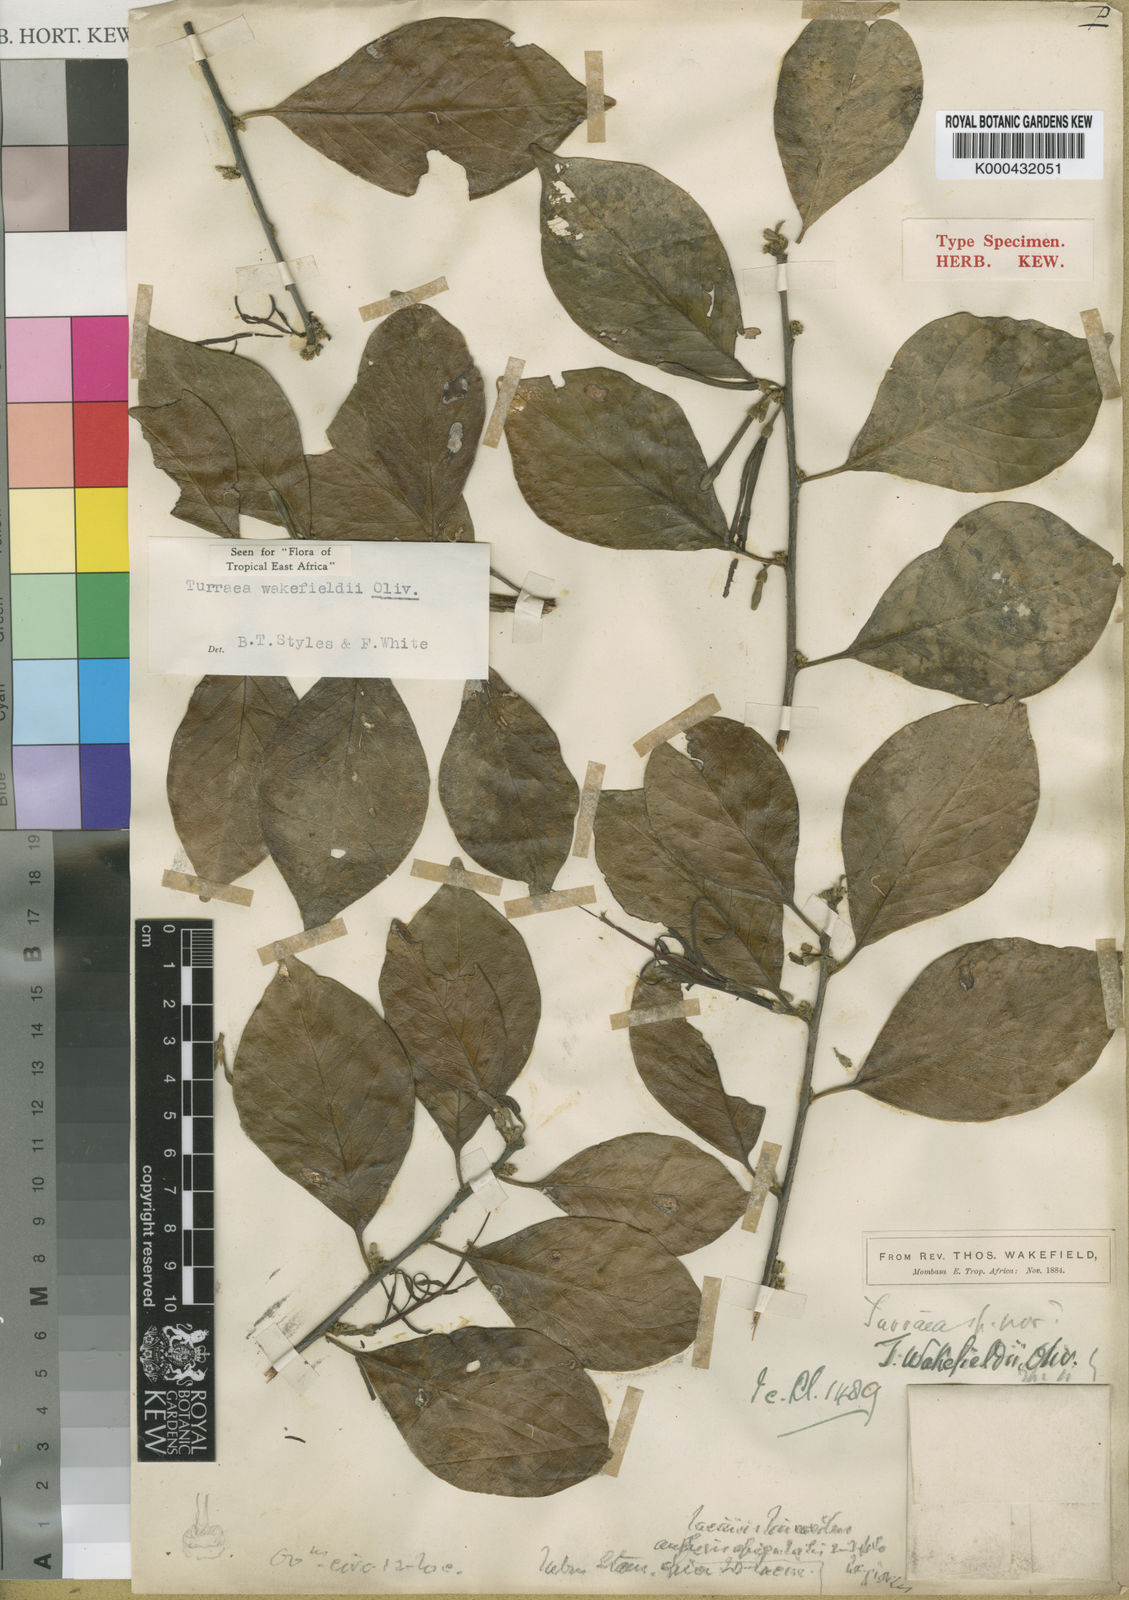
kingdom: Plantae
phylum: Tracheophyta
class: Magnoliopsida
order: Sapindales
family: Meliaceae
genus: Turraea
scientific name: Turraea wakefieldii
